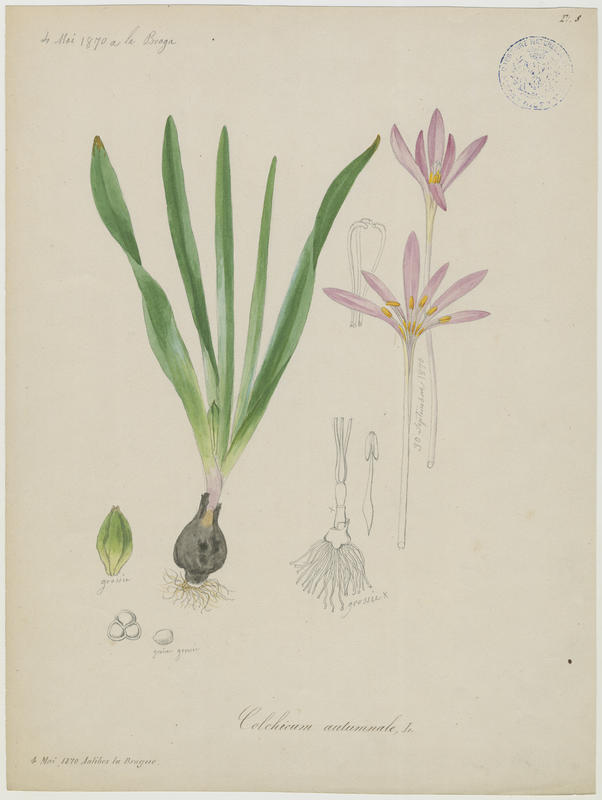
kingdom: Plantae
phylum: Tracheophyta
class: Liliopsida
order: Liliales
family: Colchicaceae
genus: Colchicum
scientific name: Colchicum autumnale
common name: Autumn crocus
